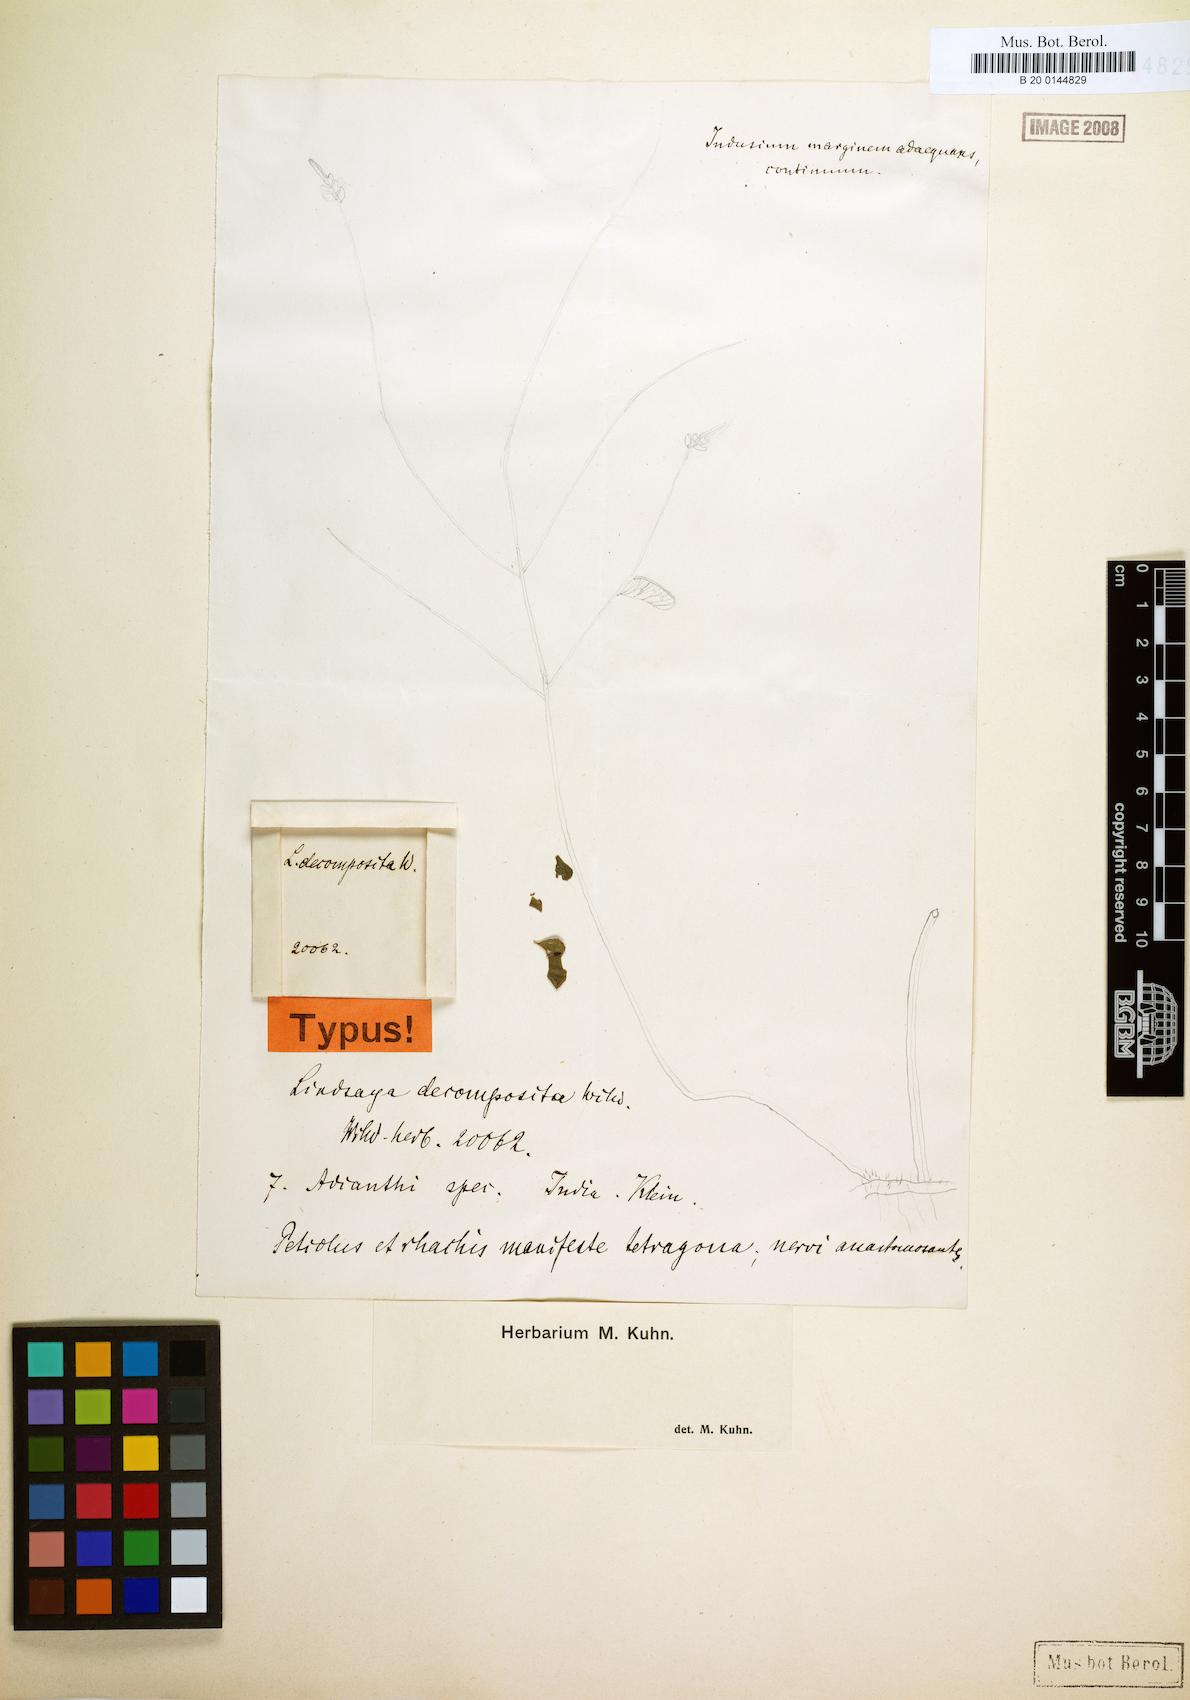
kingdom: Plantae
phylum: Tracheophyta
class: Polypodiopsida
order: Polypodiales
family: Lindsaeaceae
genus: Lindsaea
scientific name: Lindsaea cultrata
